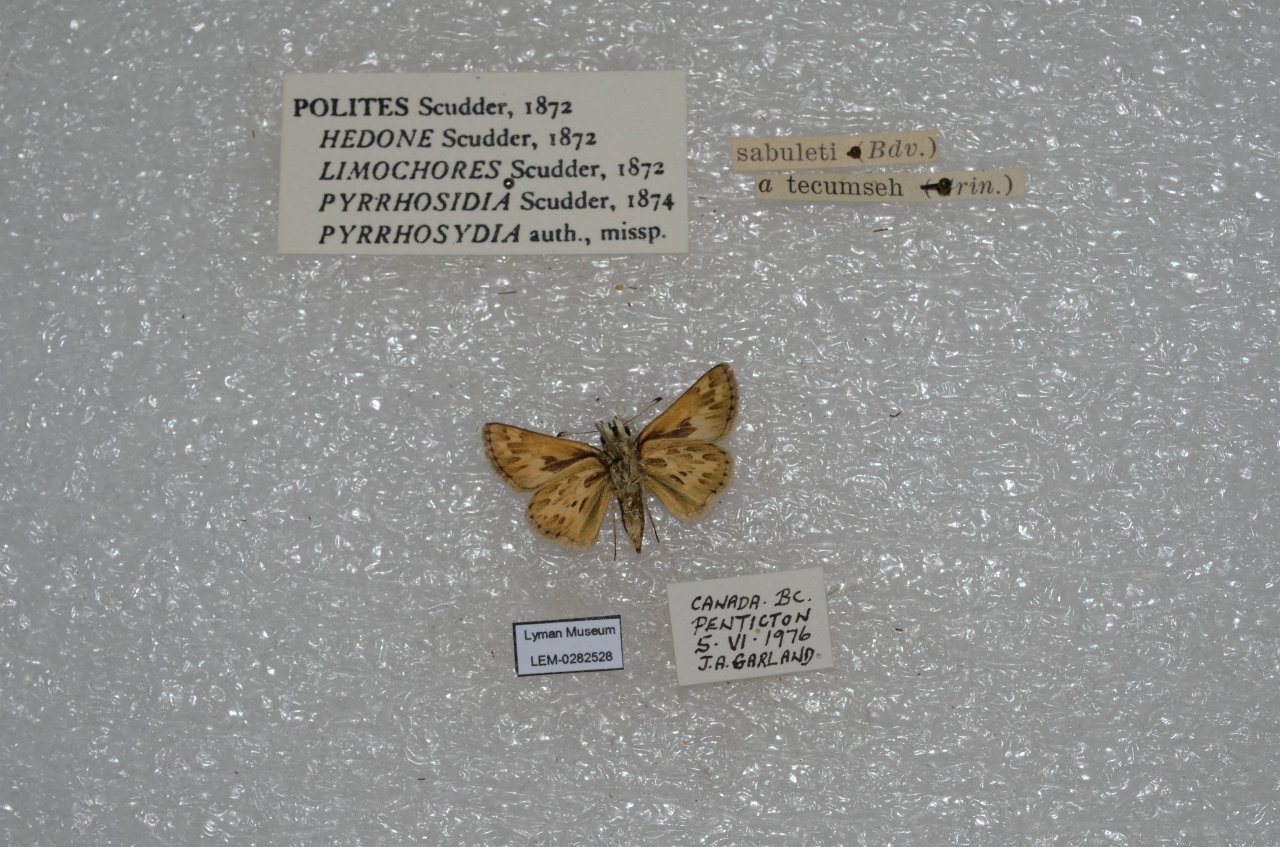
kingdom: Animalia
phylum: Arthropoda
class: Insecta
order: Lepidoptera
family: Hesperiidae
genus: Polites
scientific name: Polites sabuleti
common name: Sandhill Skipper
